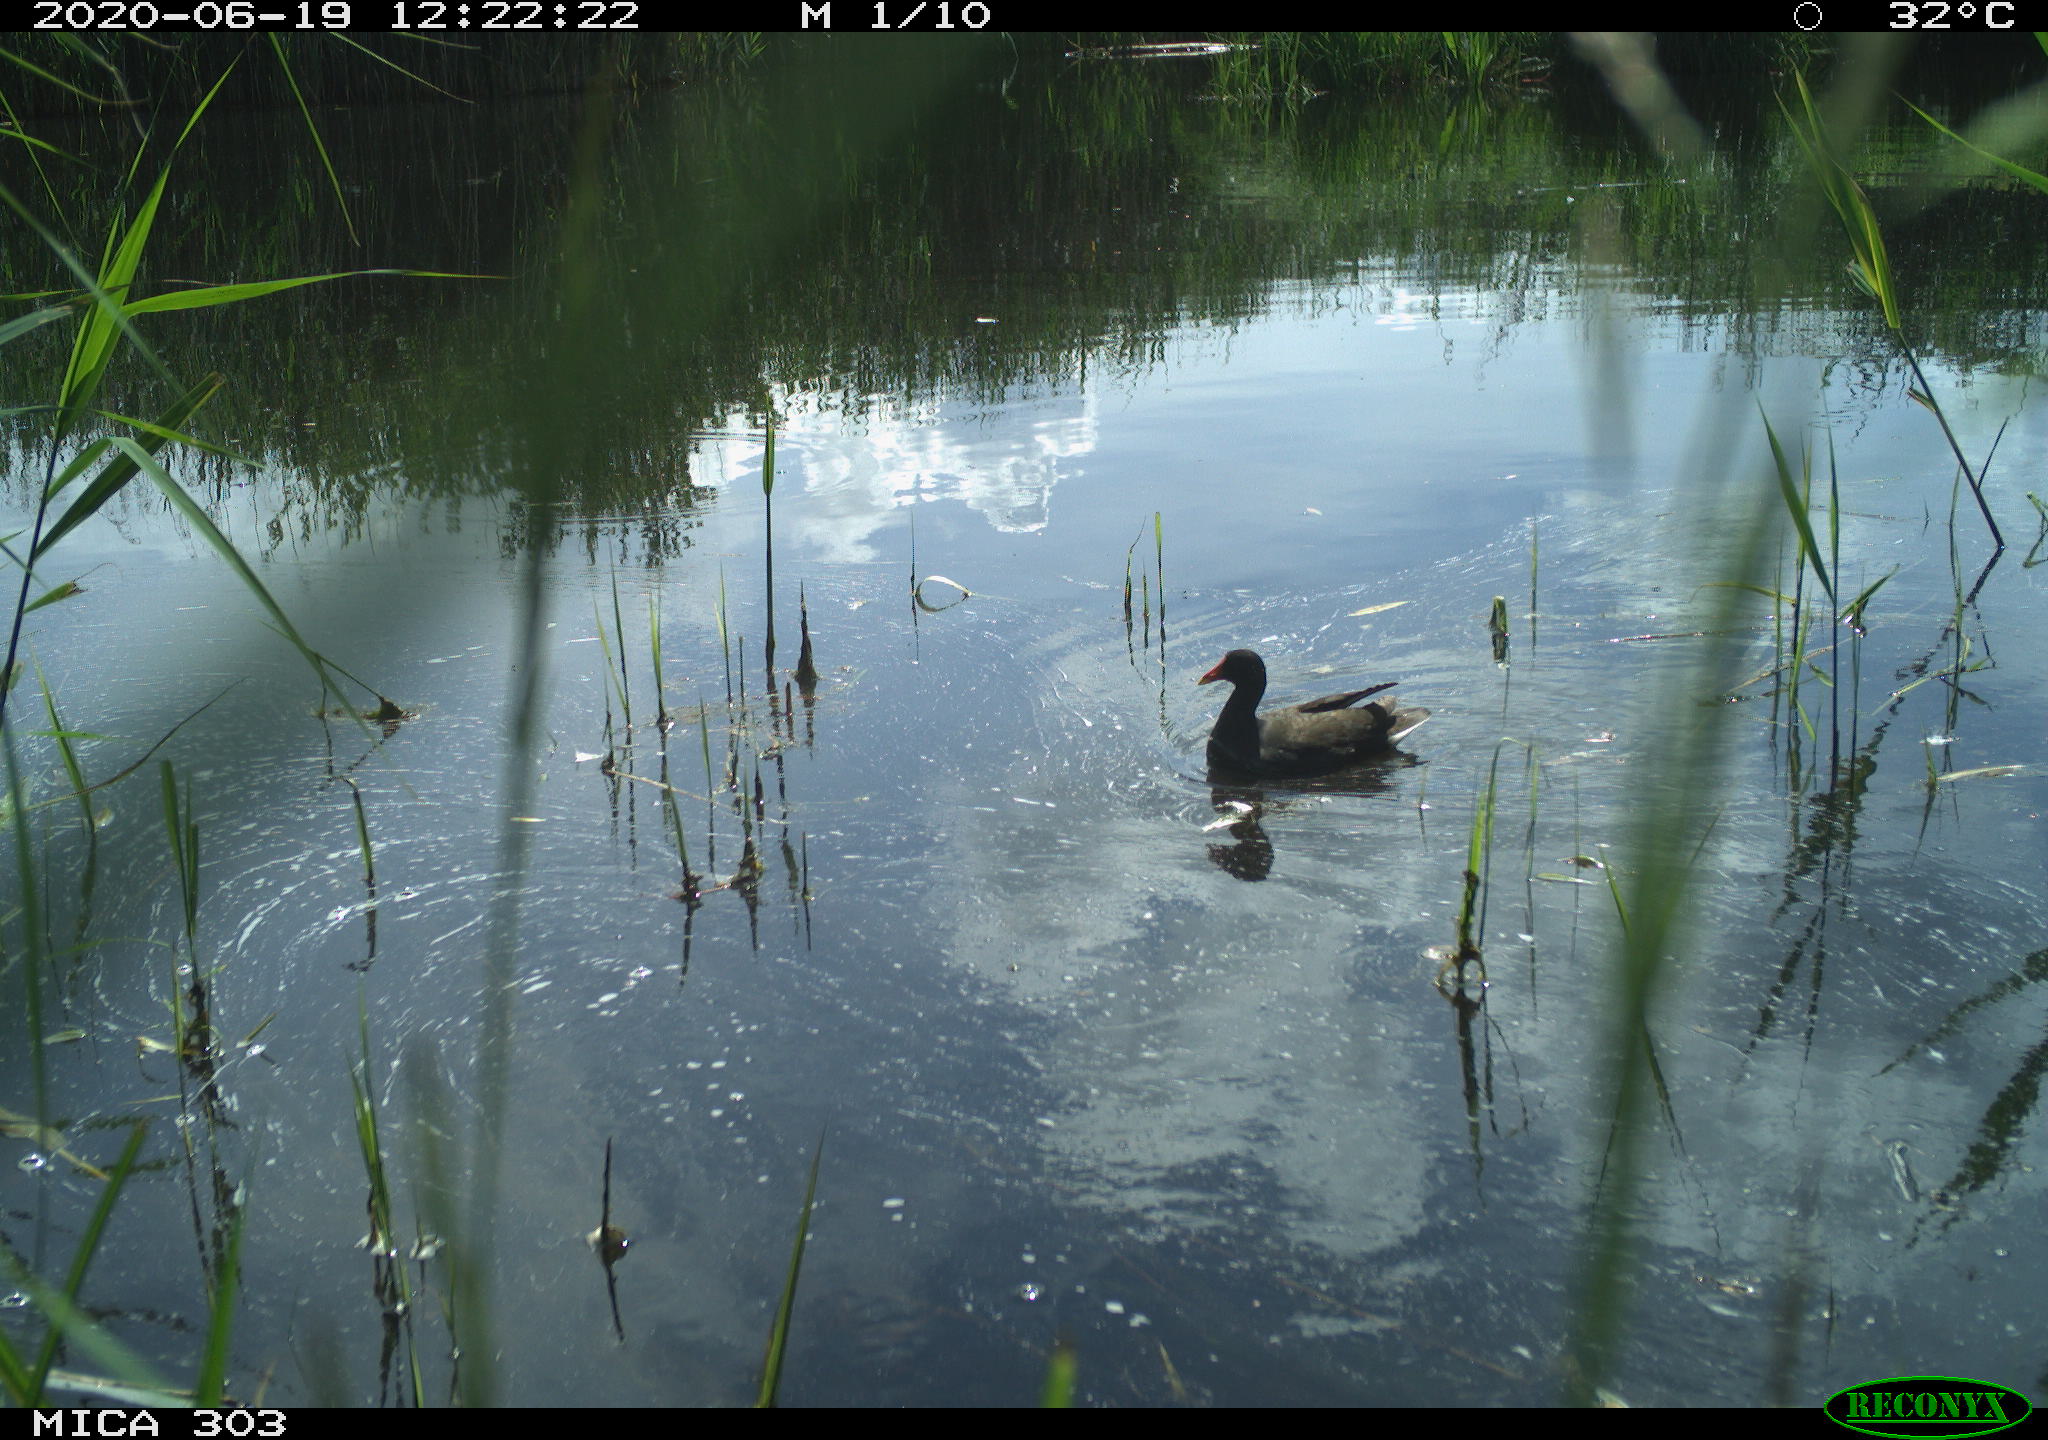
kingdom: Animalia
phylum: Chordata
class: Aves
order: Gruiformes
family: Rallidae
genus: Gallinula
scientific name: Gallinula chloropus
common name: Common moorhen
